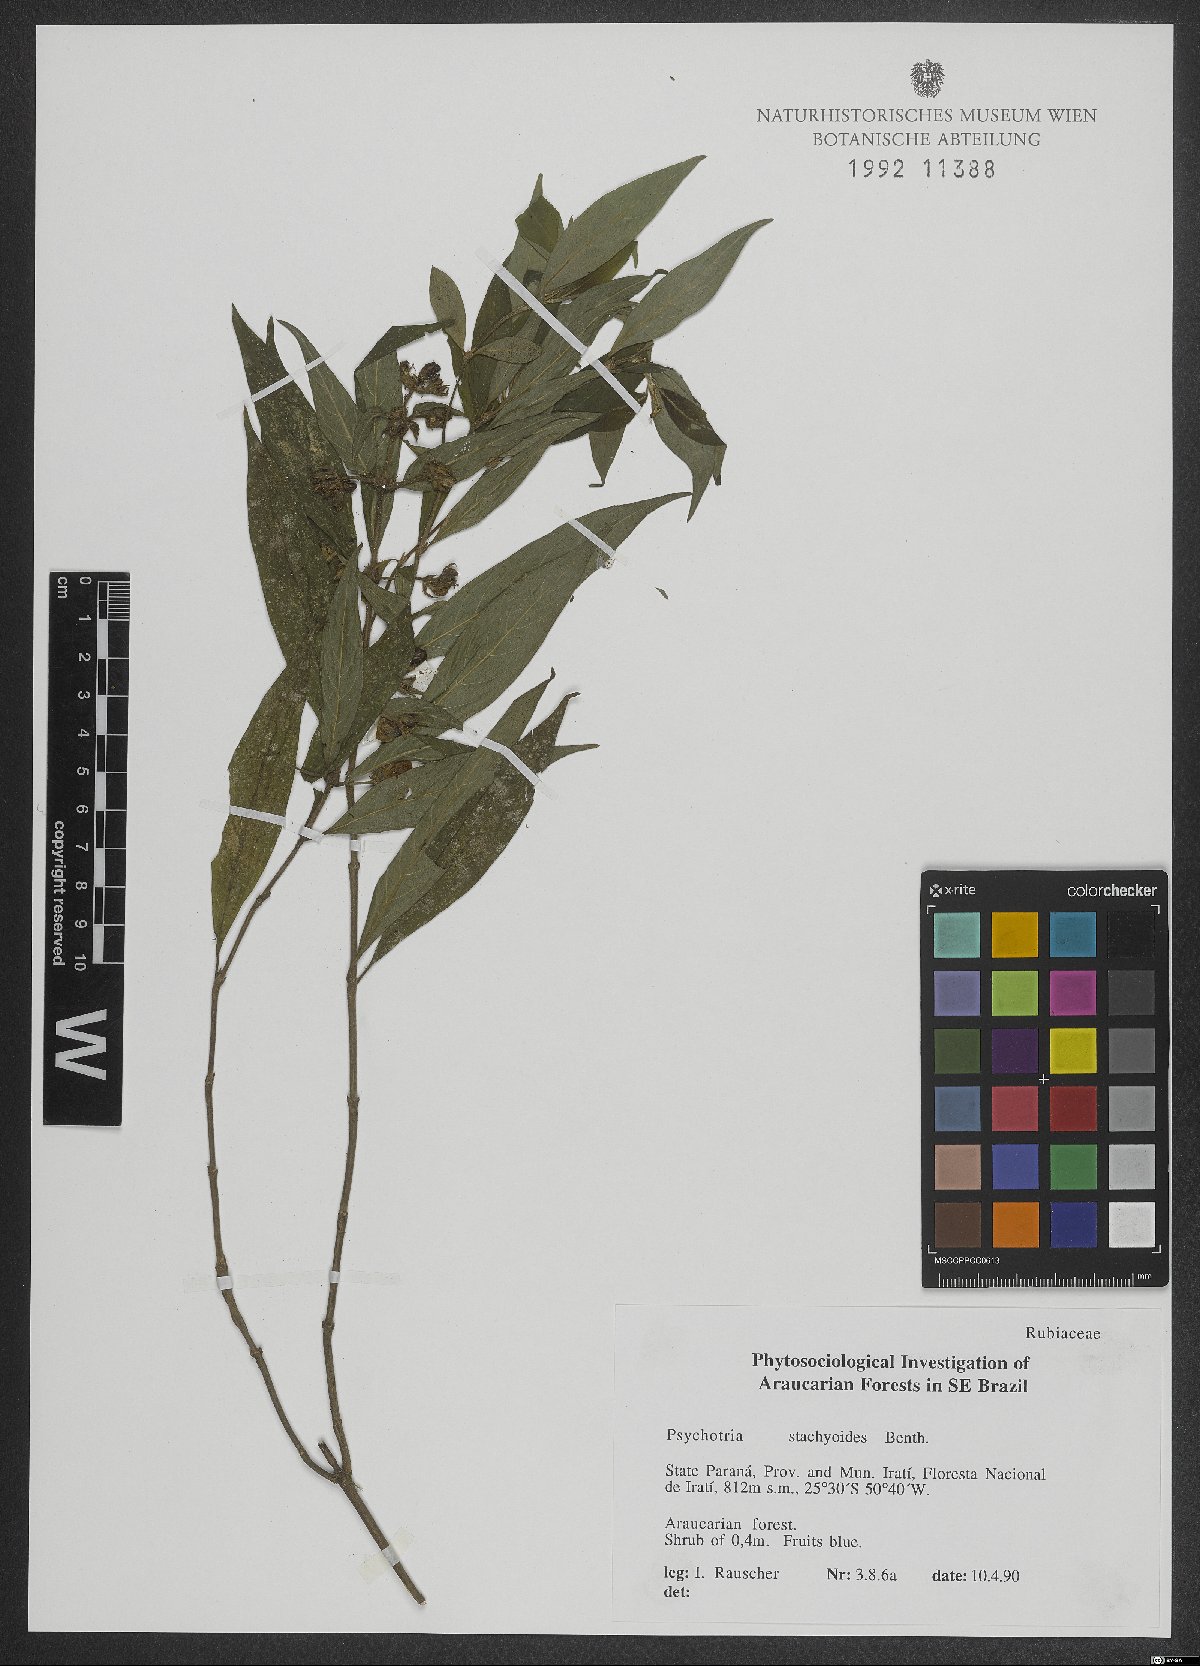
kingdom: Plantae
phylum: Tracheophyta
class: Magnoliopsida
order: Gentianales
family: Rubiaceae
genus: Psychotria
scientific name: Psychotria stachyoides
